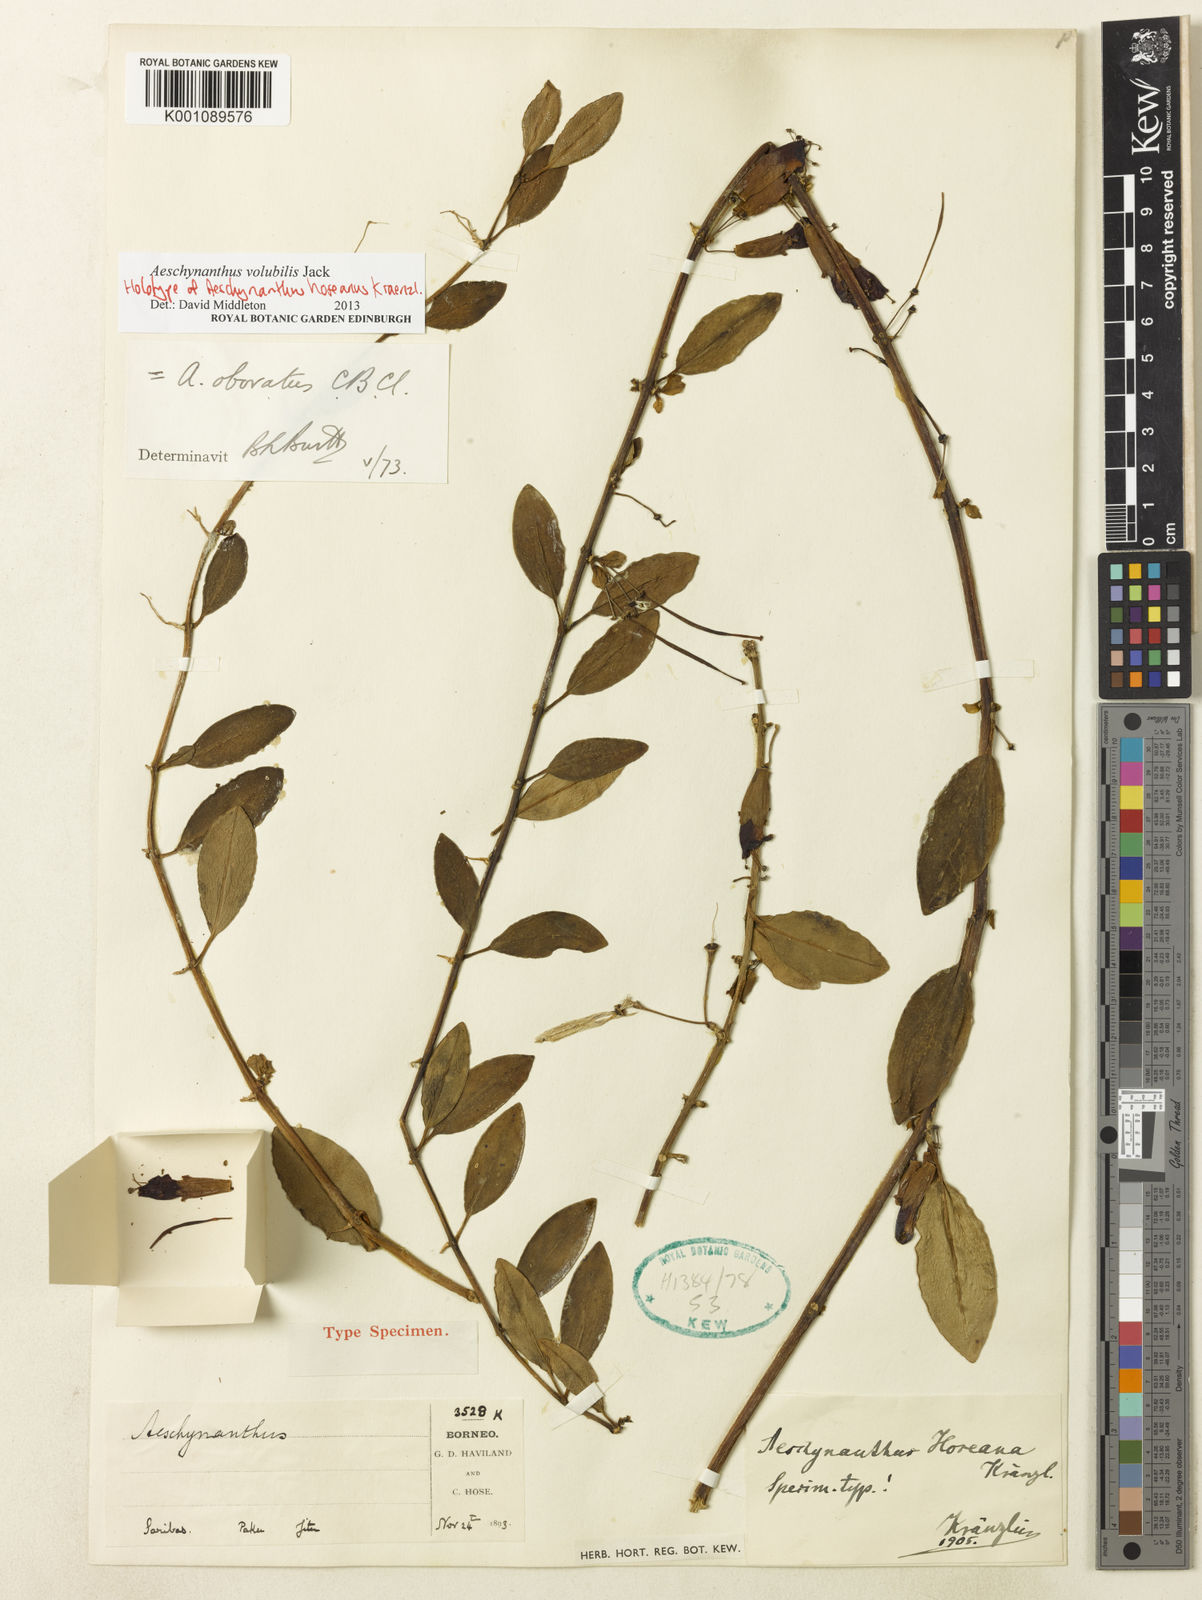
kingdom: Plantae
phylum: Tracheophyta
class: Magnoliopsida
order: Lamiales
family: Gesneriaceae
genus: Aeschynanthus
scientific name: Aeschynanthus volubilis
